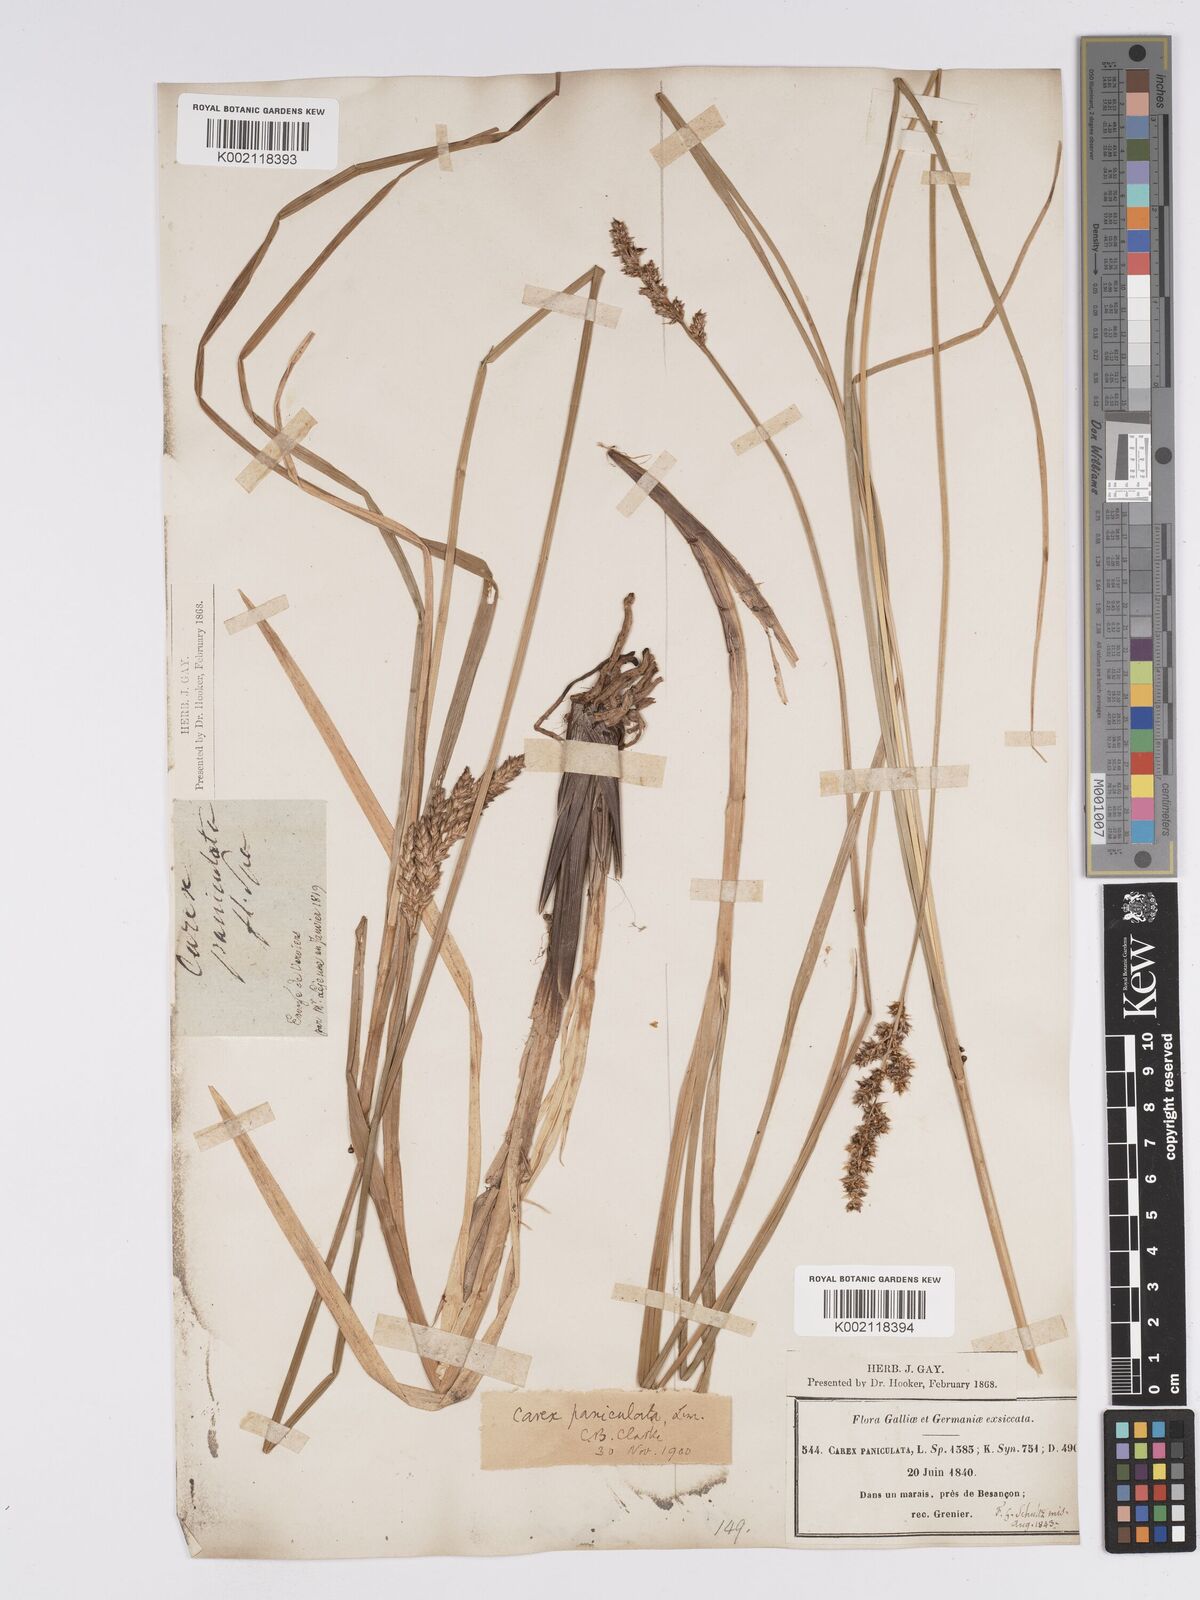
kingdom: Plantae
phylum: Tracheophyta
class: Liliopsida
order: Poales
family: Cyperaceae
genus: Carex
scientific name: Carex paniculata
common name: Greater tussock-sedge
